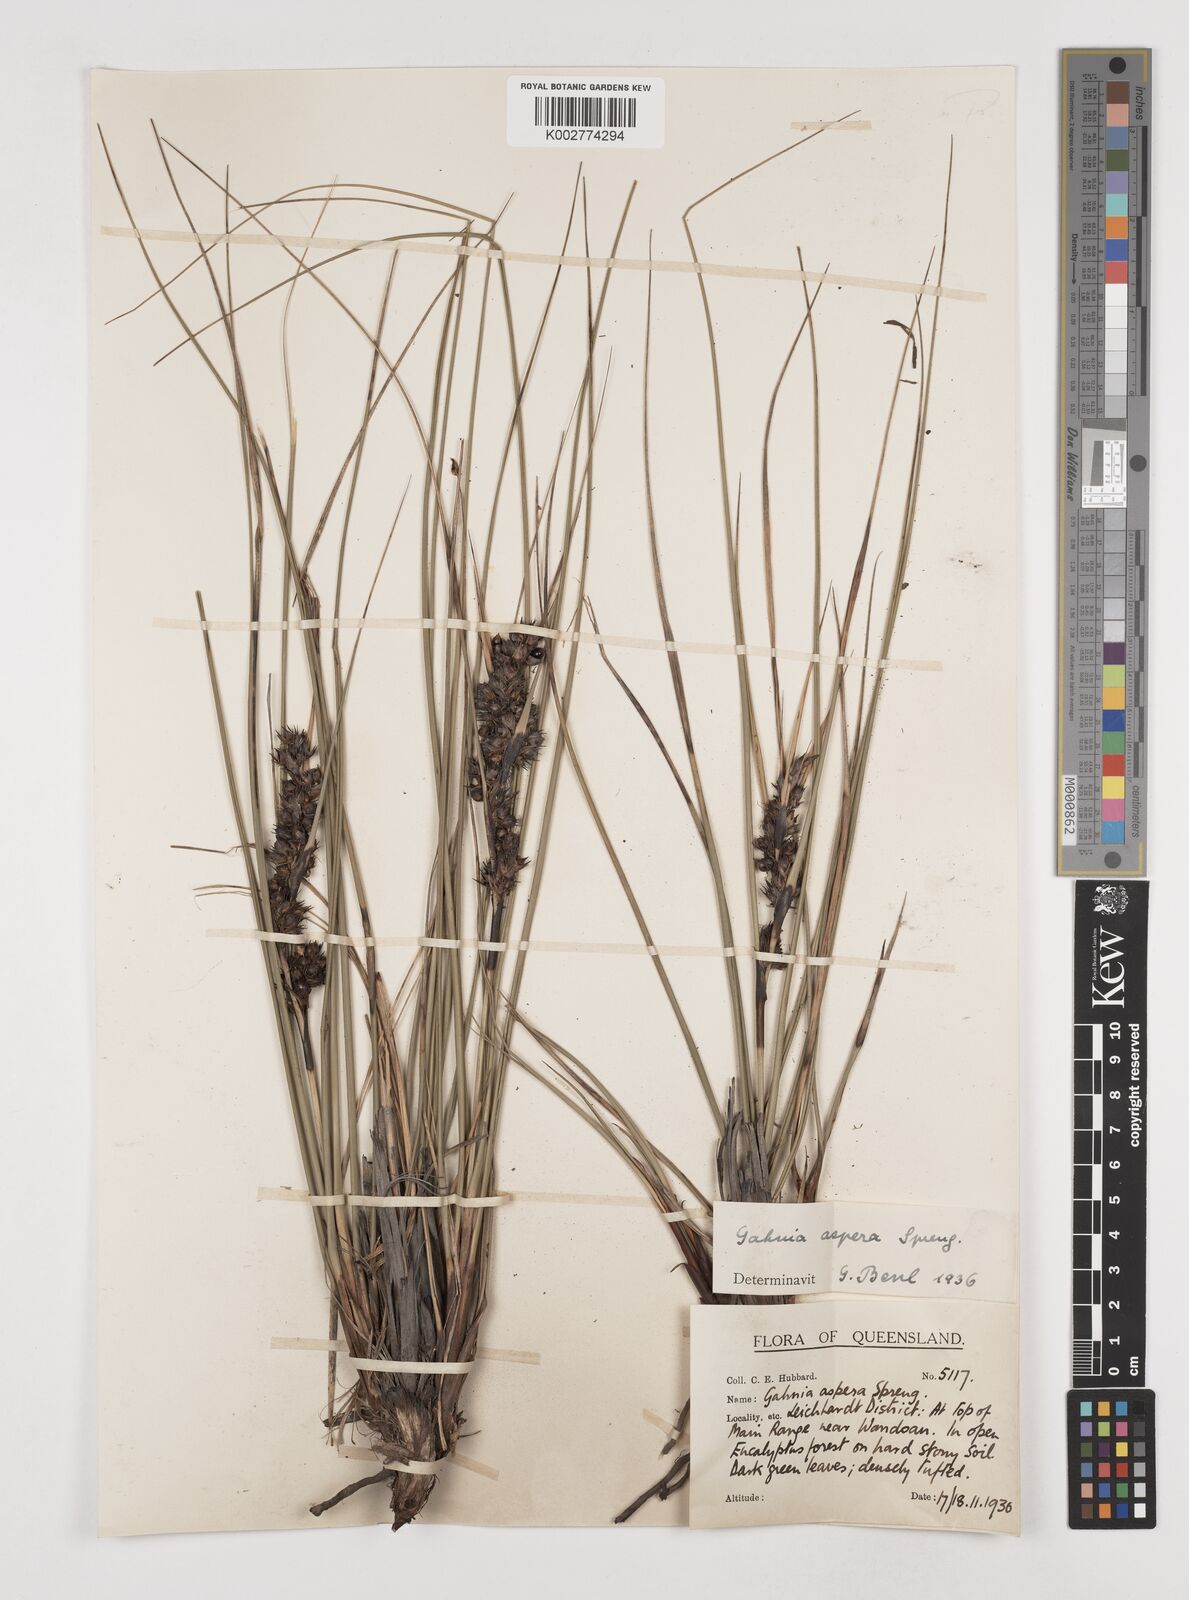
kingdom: Plantae
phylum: Tracheophyta
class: Liliopsida
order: Poales
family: Cyperaceae
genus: Gahnia
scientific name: Gahnia aspera
